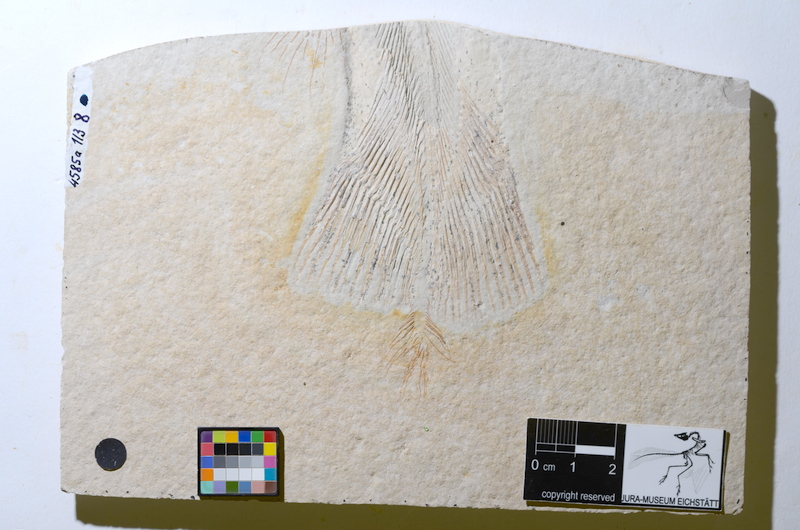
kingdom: Animalia
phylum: Chordata
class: Coelacanthi
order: Coelacanthiformes
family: Latimeroidea
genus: Undina
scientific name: Undina
